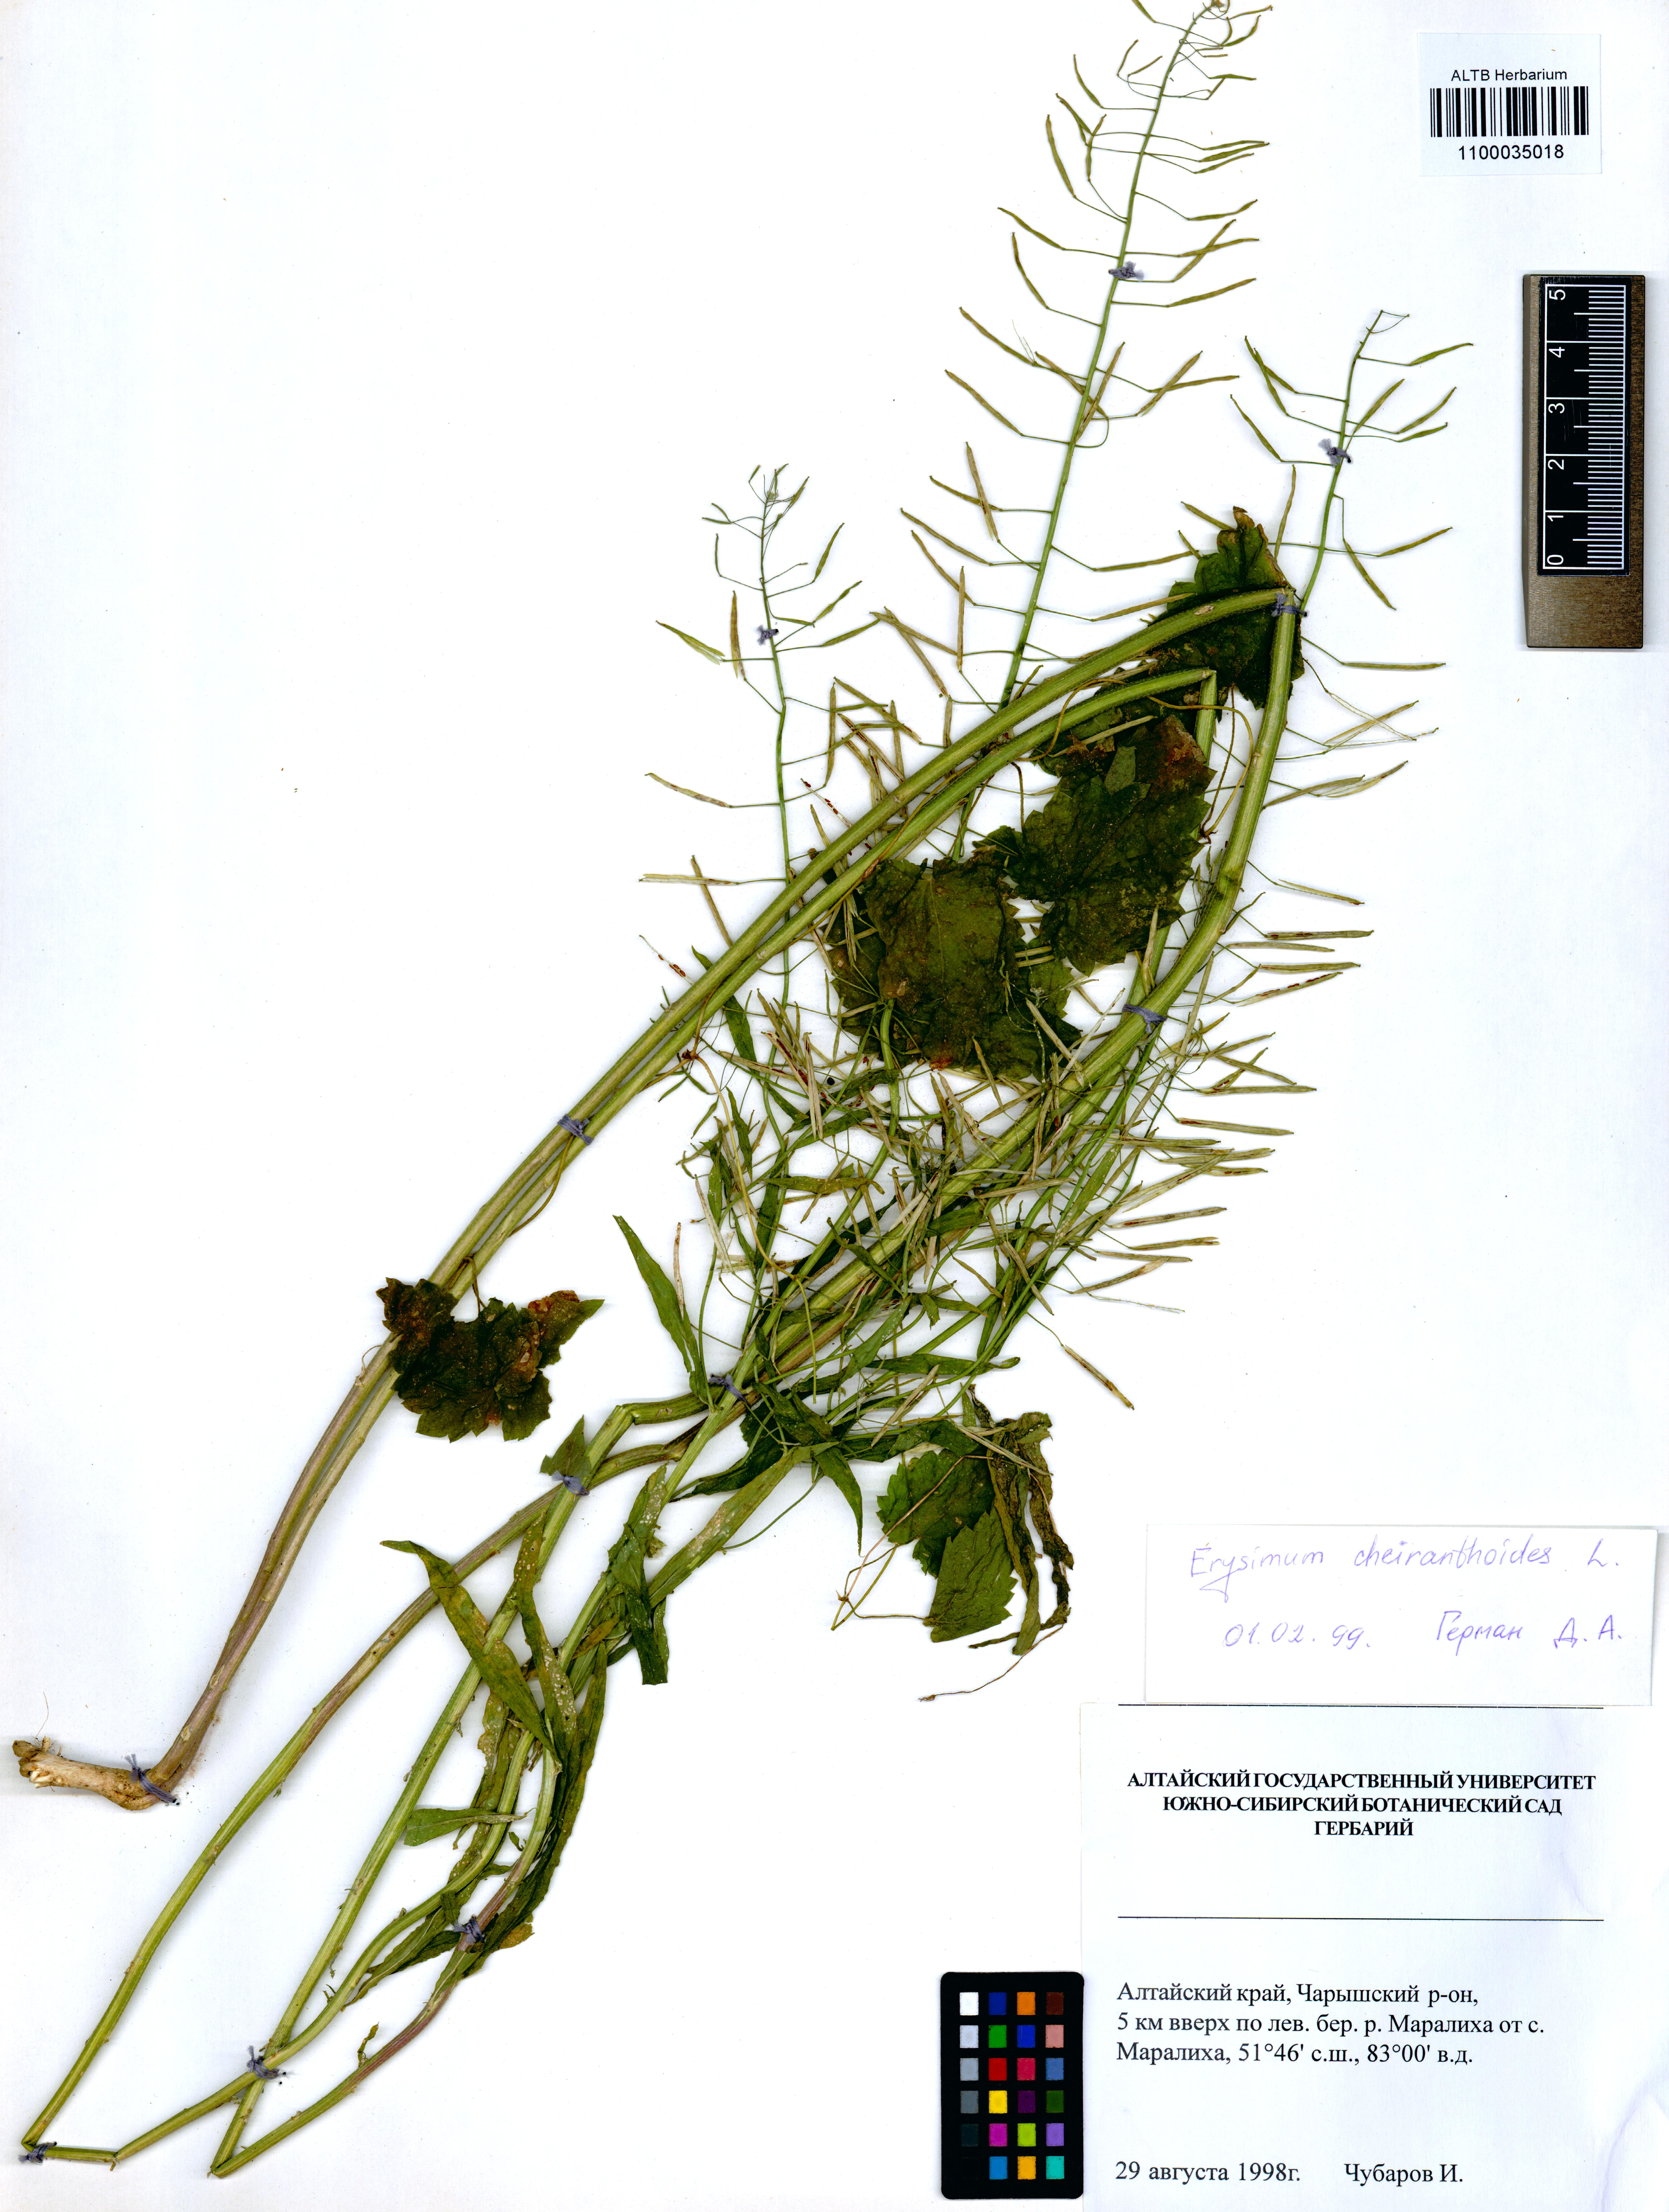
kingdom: Plantae
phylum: Tracheophyta
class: Magnoliopsida
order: Brassicales
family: Brassicaceae
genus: Erysimum
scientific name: Erysimum cheiranthoides
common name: Treacle mustard
